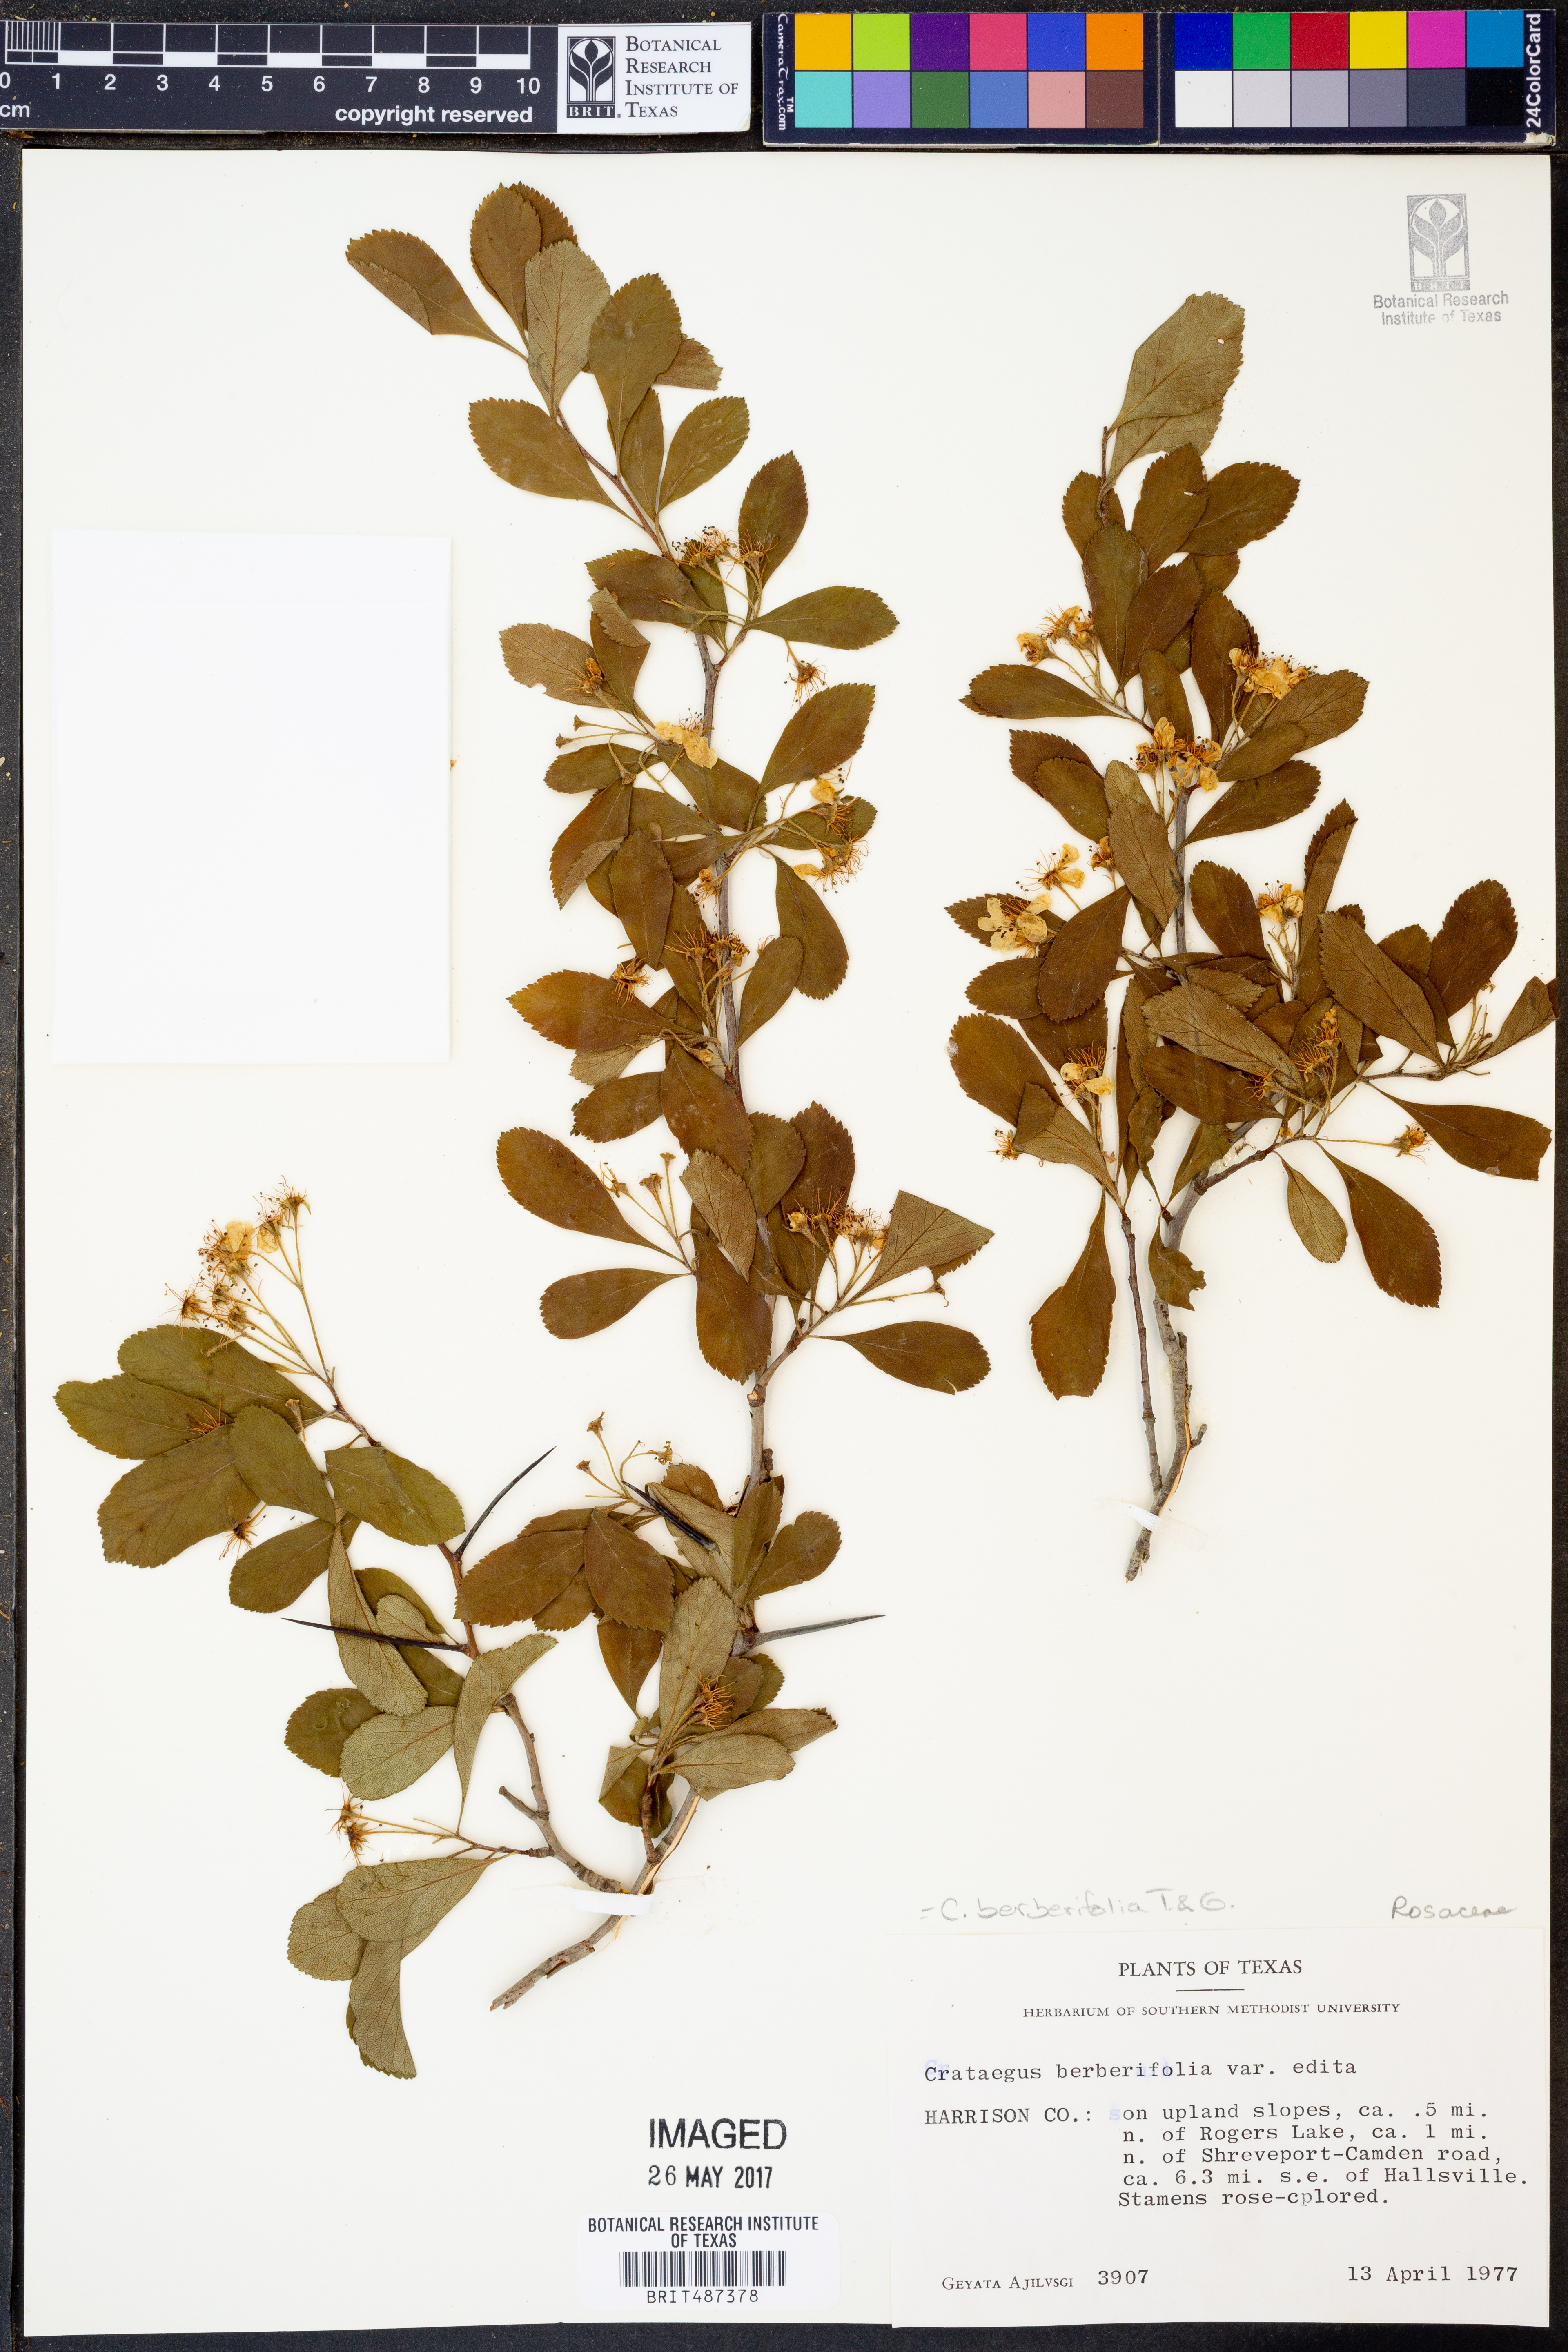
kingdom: Plantae
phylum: Tracheophyta
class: Magnoliopsida
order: Rosales
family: Rosaceae
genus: Crataegus
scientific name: Crataegus berberifolia
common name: Barberry hawthorn
